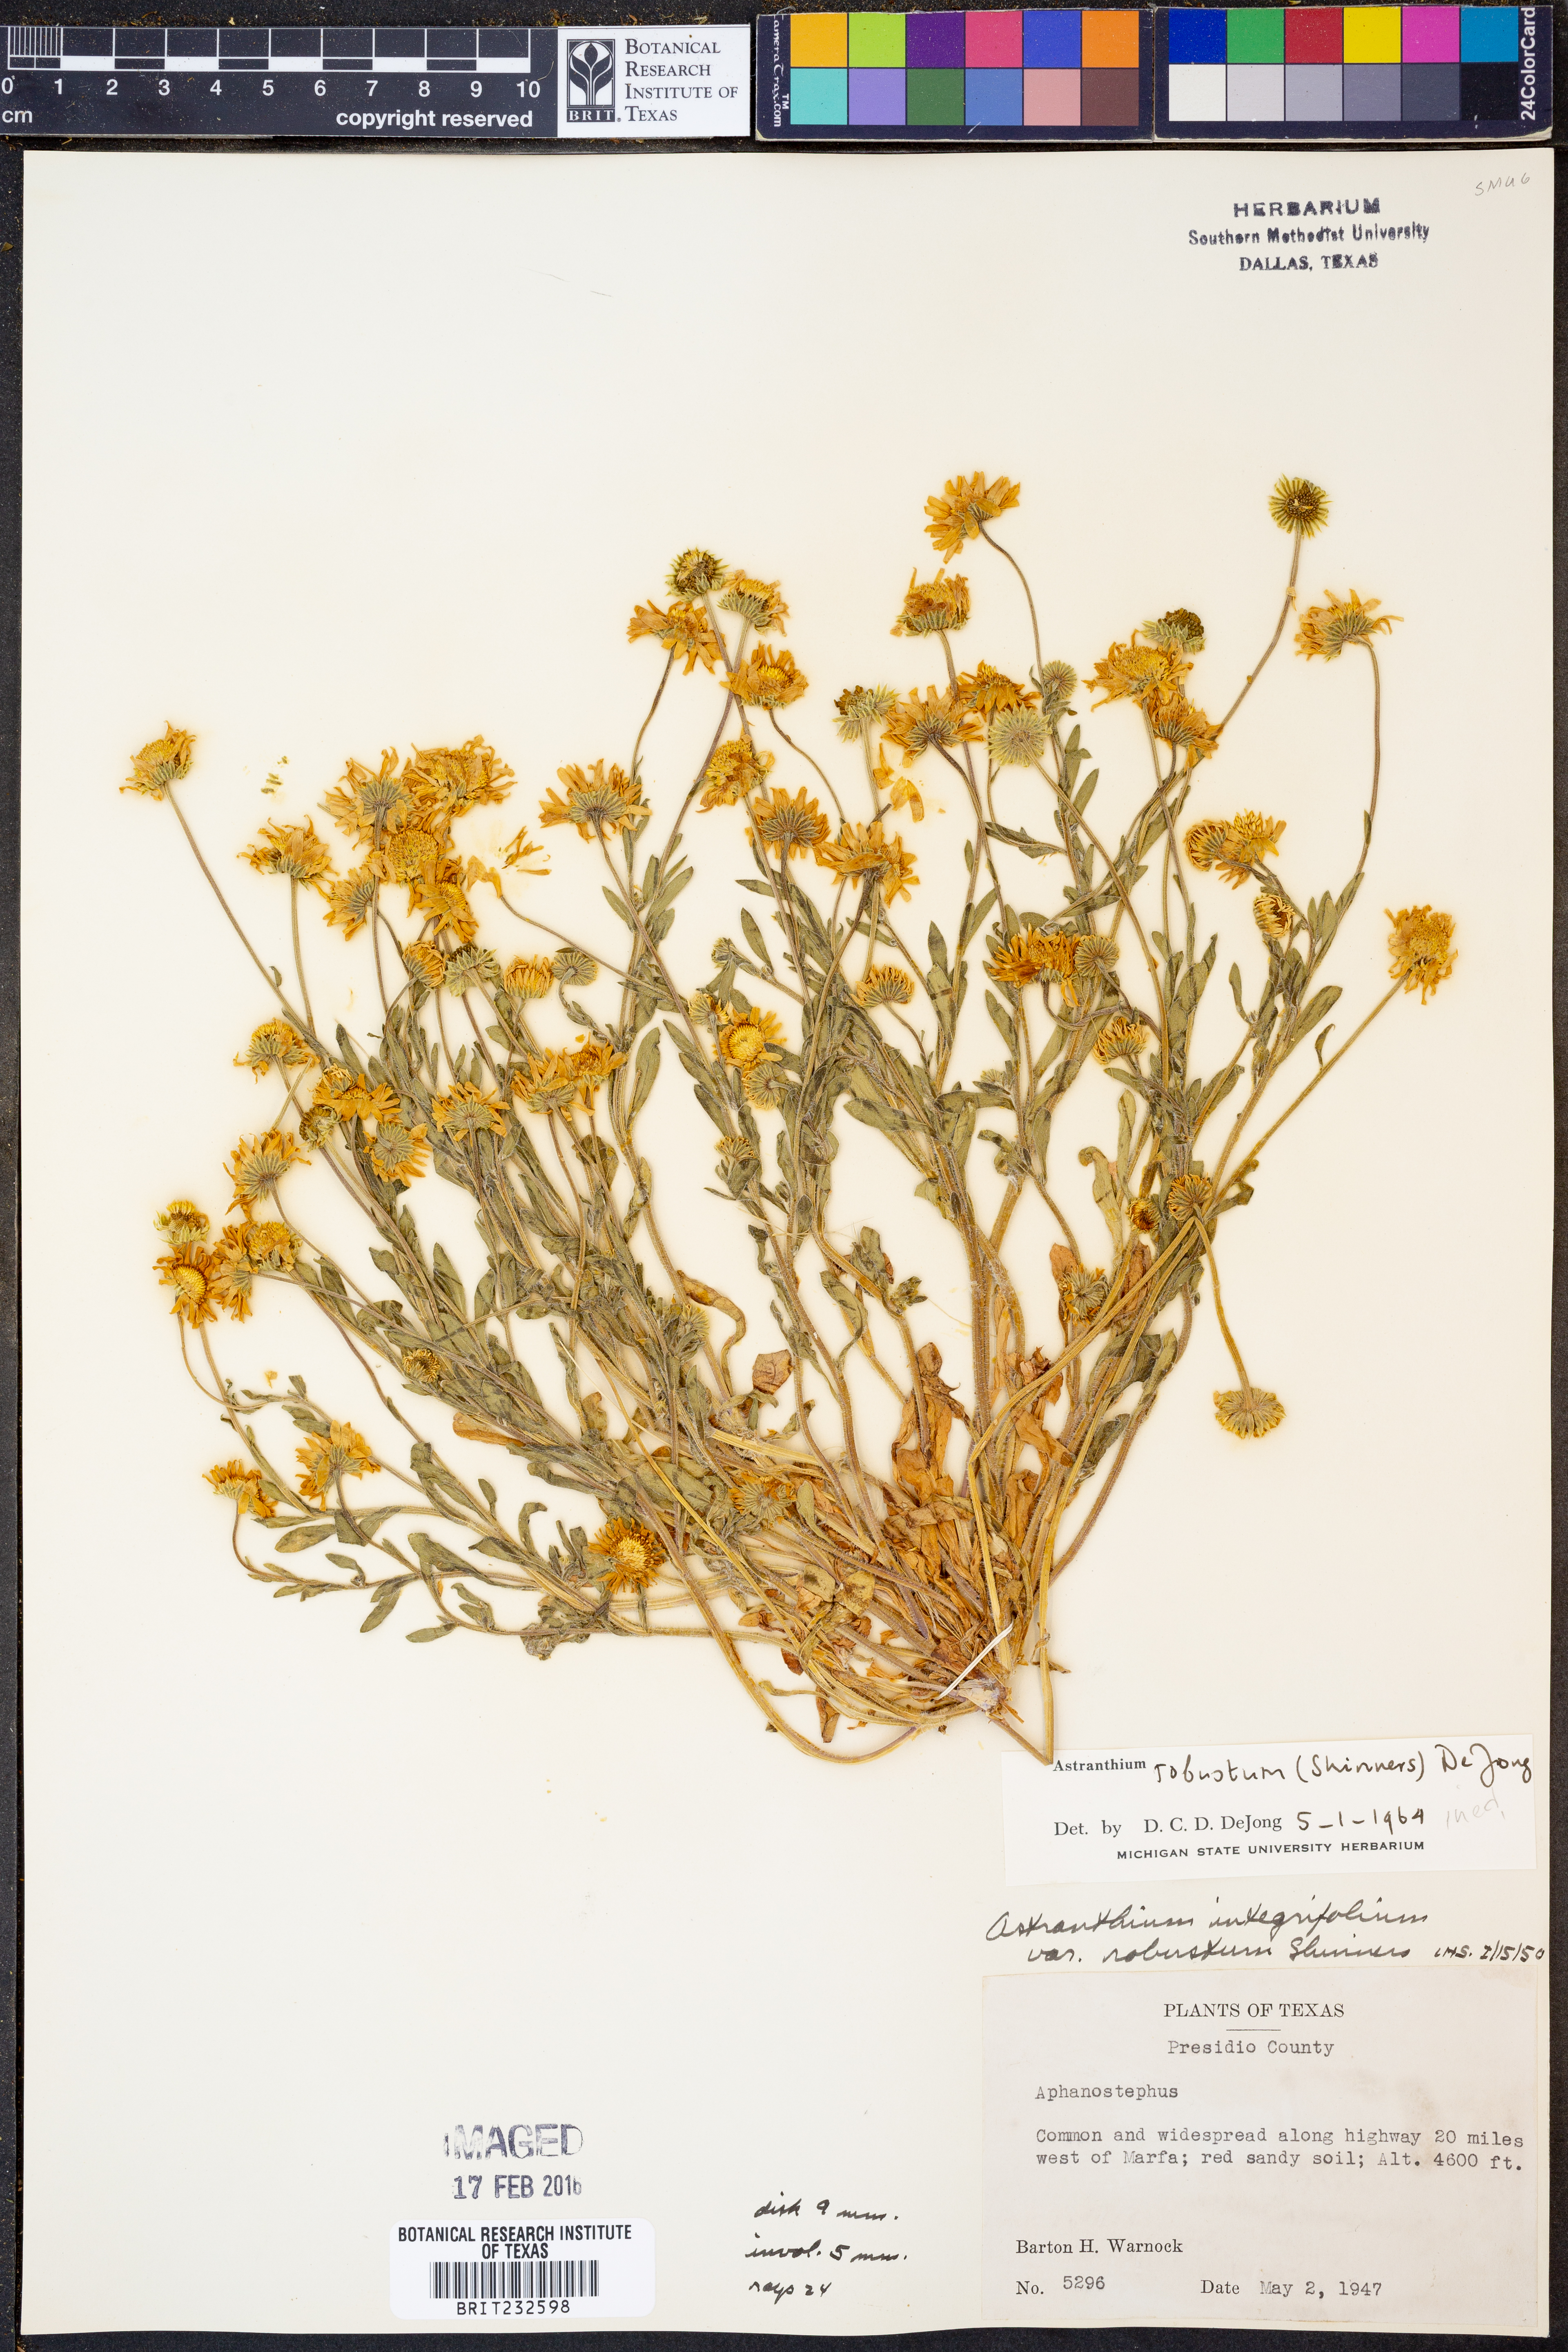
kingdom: Plantae
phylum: Tracheophyta
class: Magnoliopsida
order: Asterales
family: Asteraceae
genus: Astranthium
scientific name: Astranthium robustum
